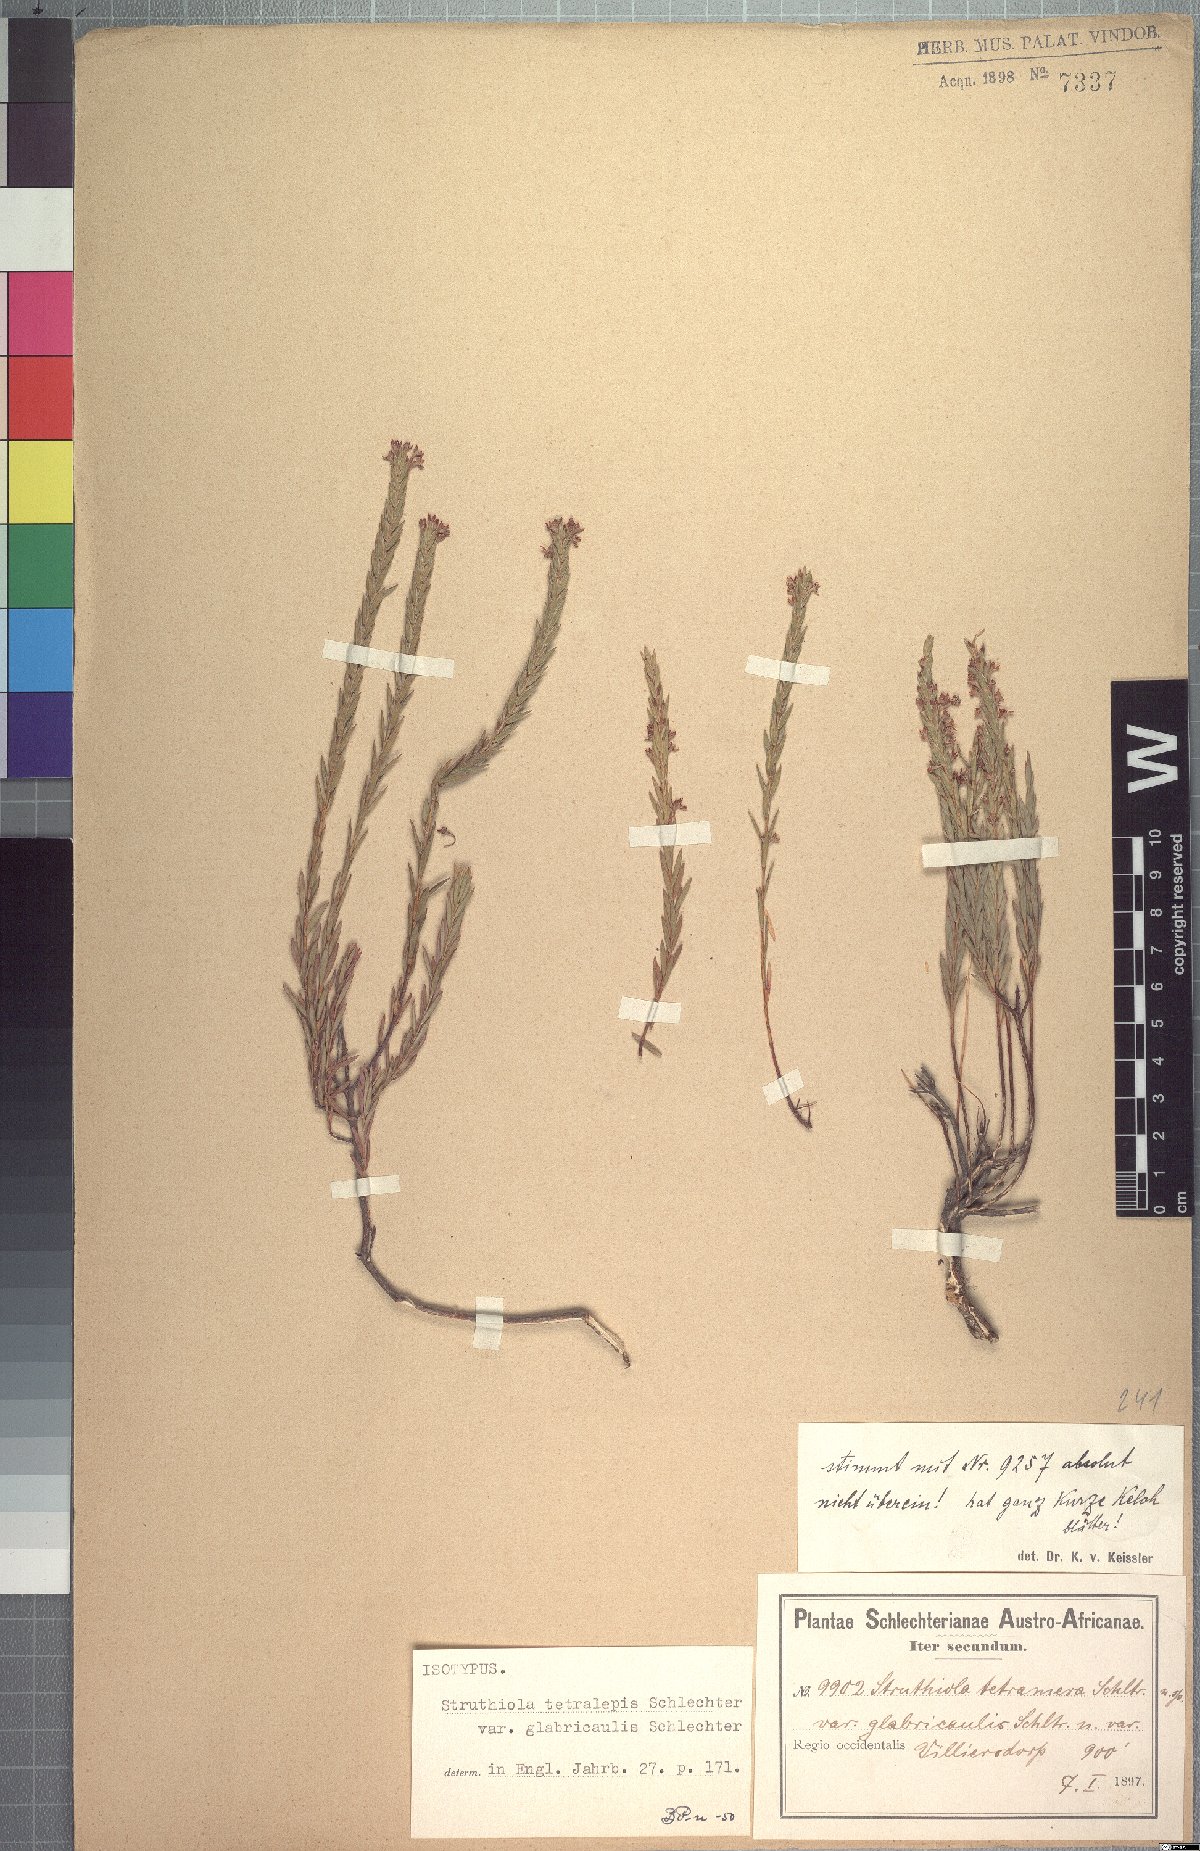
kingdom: Plantae
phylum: Tracheophyta
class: Magnoliopsida
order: Malvales
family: Thymelaeaceae
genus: Struthiola
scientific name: Struthiola tetralepis
